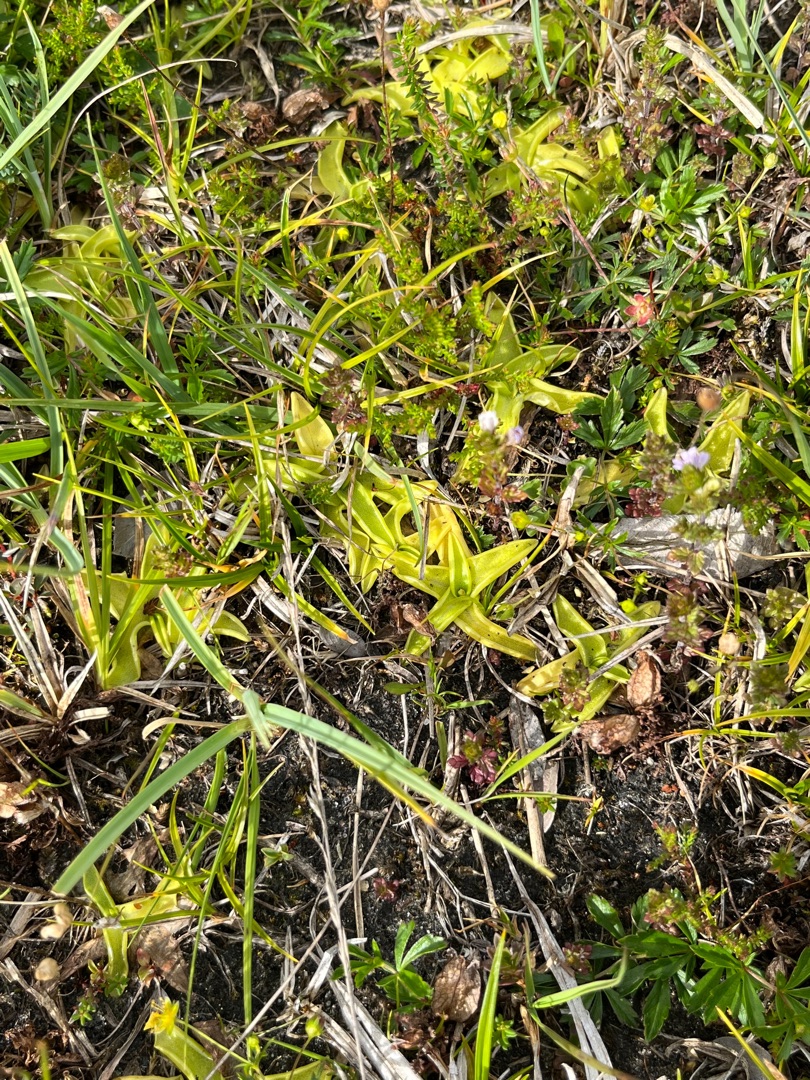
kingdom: Plantae
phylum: Tracheophyta
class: Magnoliopsida
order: Lamiales
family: Lentibulariaceae
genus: Pinguicula
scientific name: Pinguicula vulgaris
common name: Vibefedt
